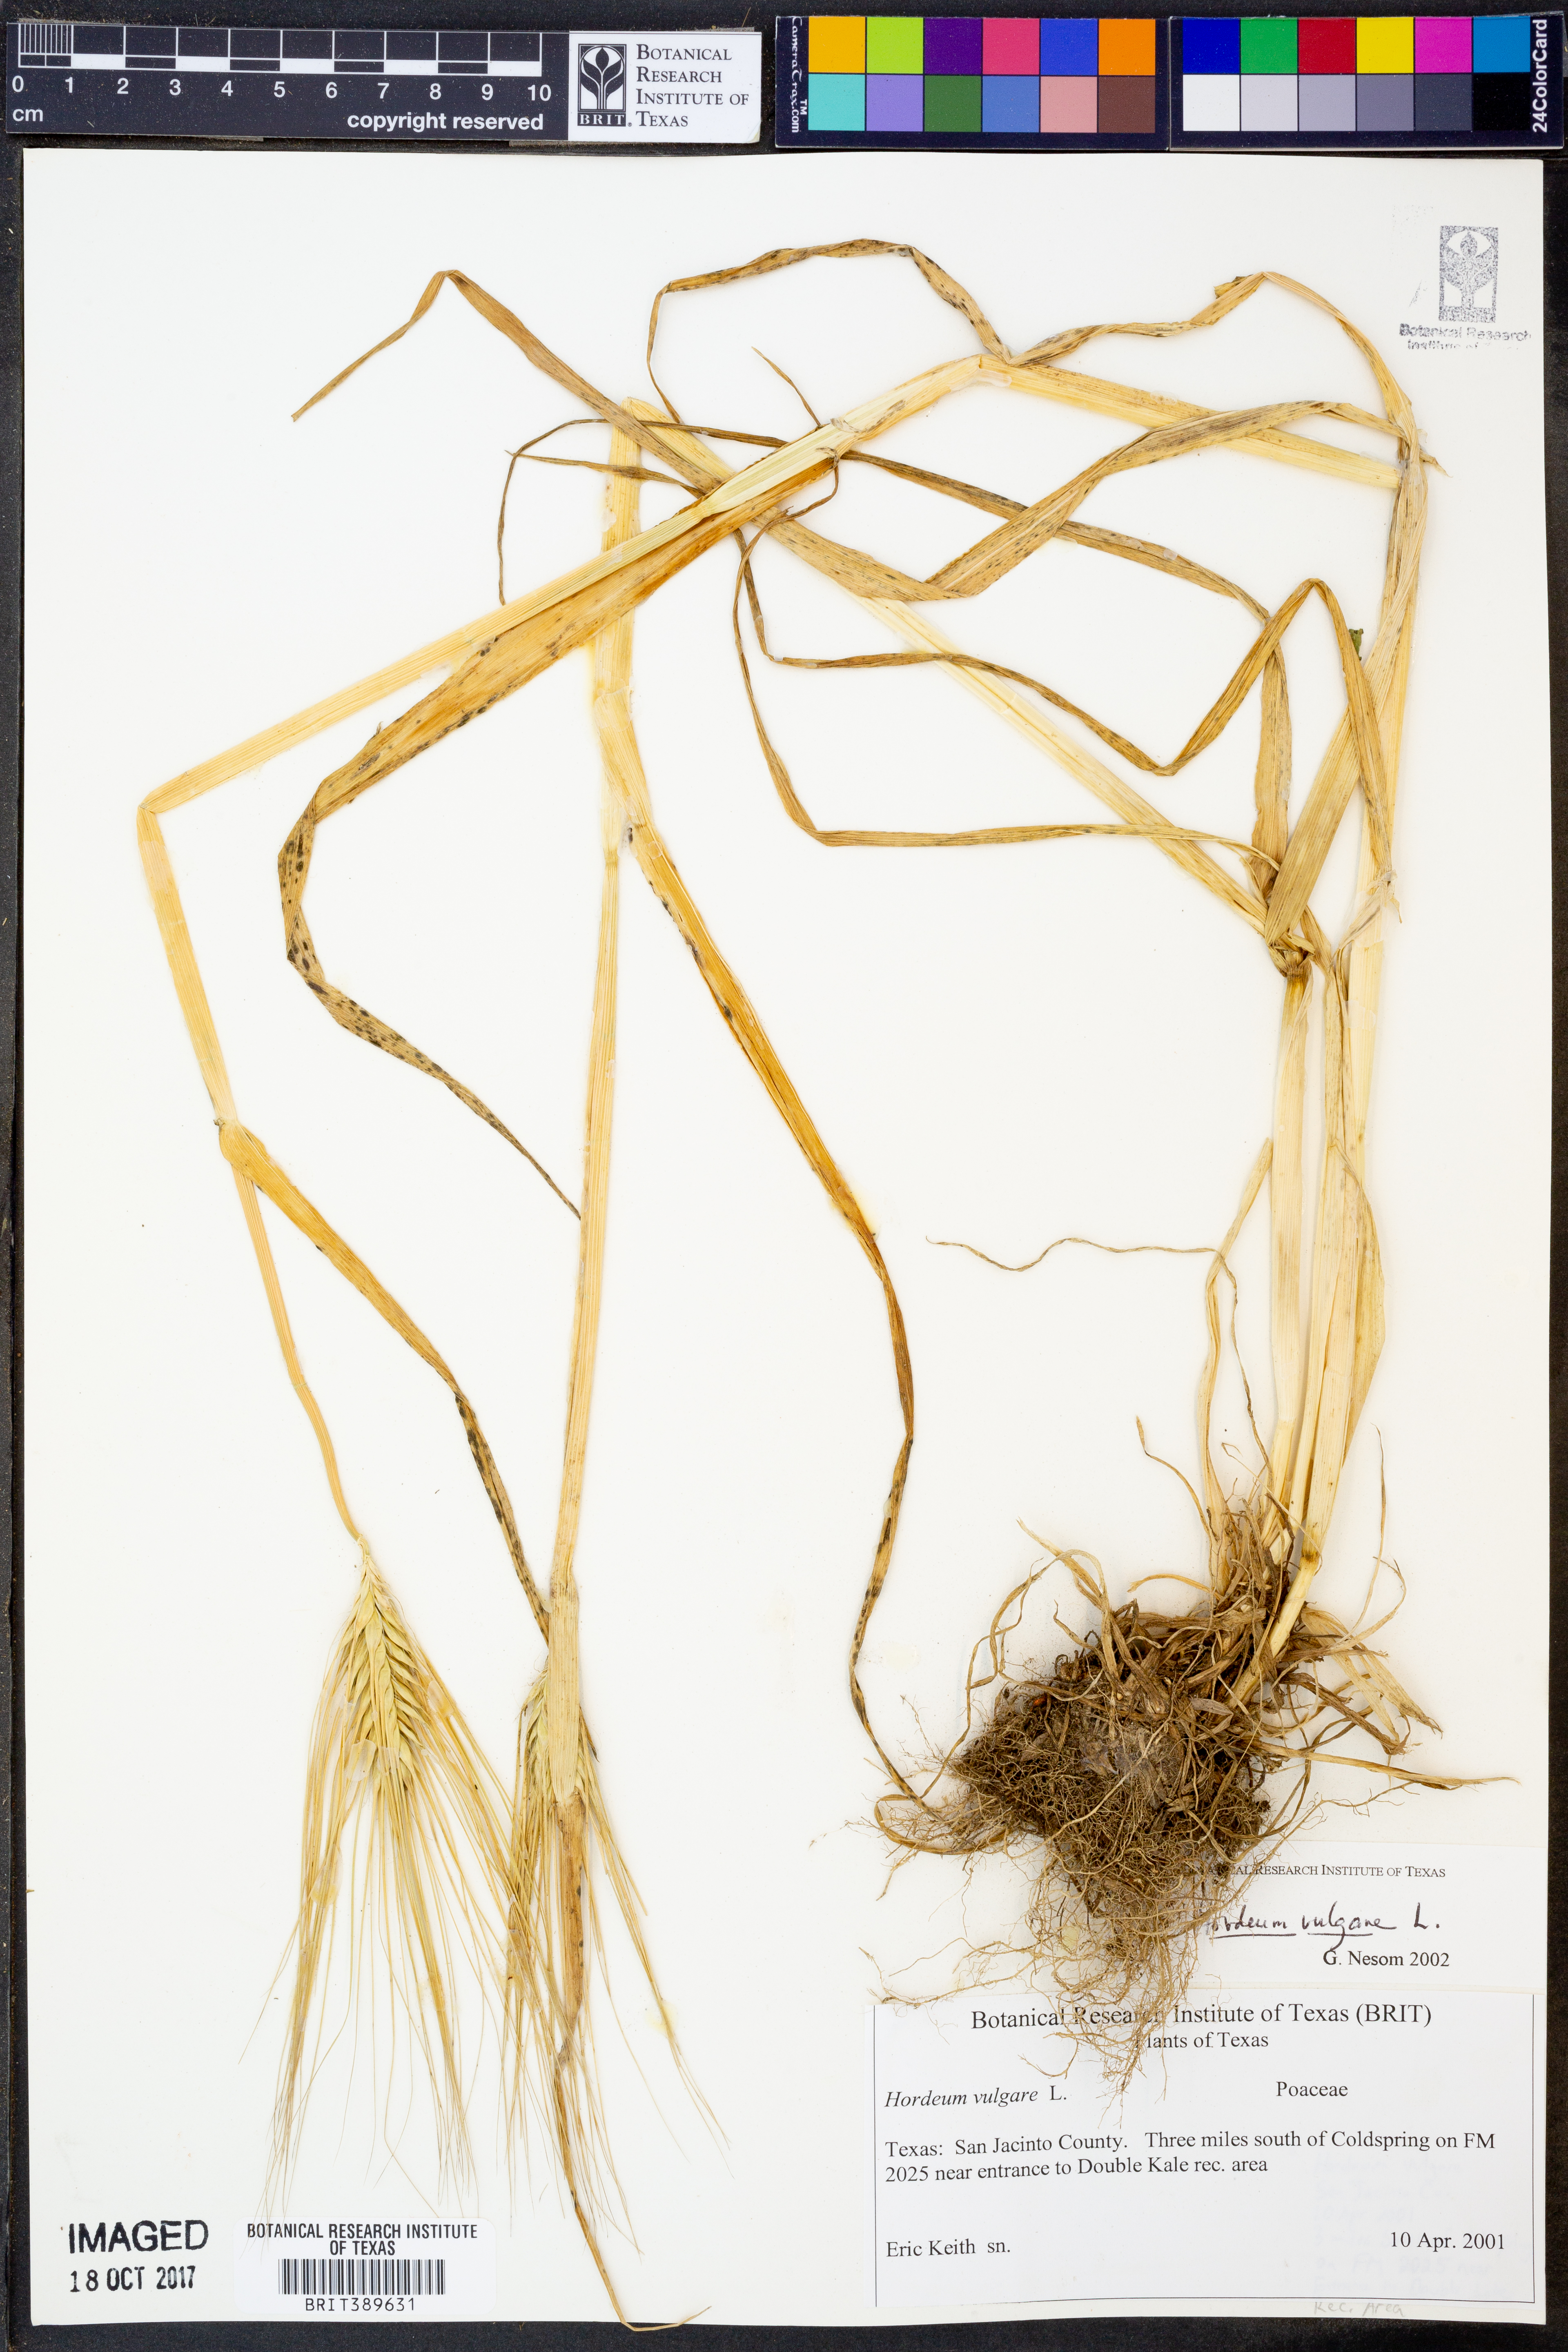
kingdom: Plantae
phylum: Tracheophyta
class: Liliopsida
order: Poales
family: Poaceae
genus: Hordeum
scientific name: Hordeum vulgare
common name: Common barley
